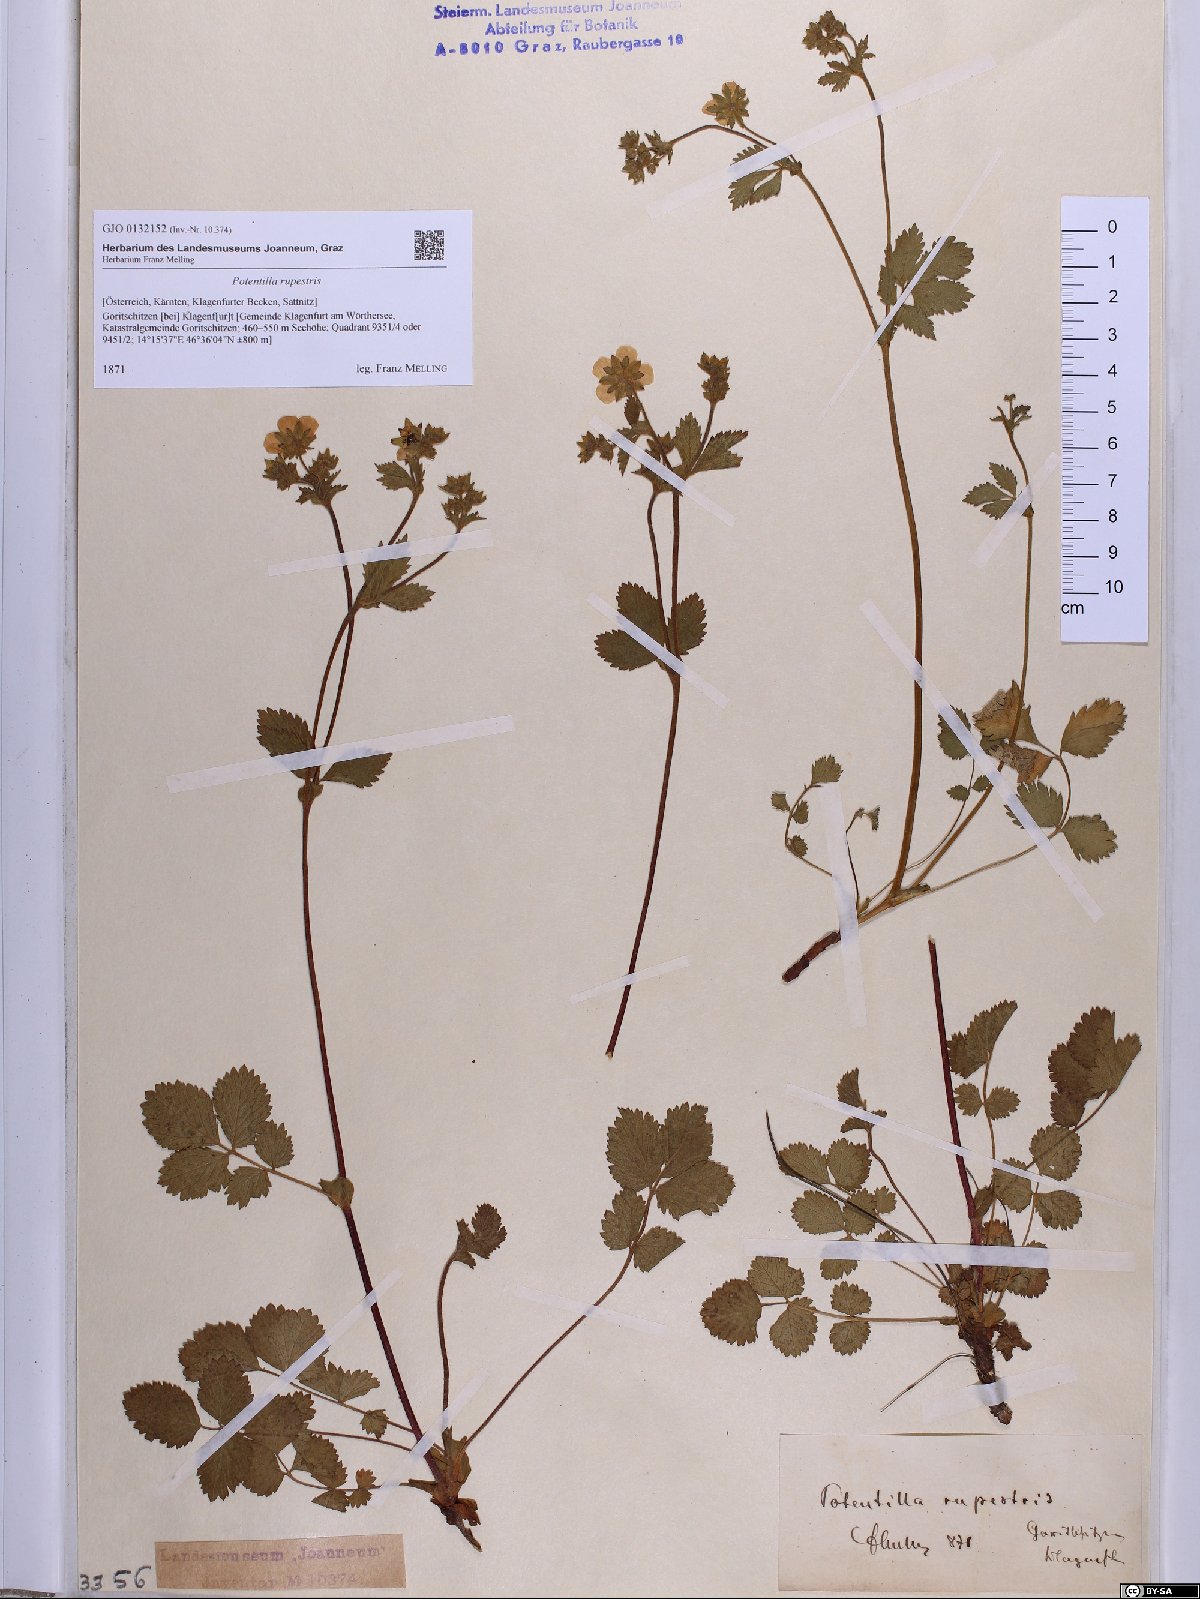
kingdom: Plantae
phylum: Tracheophyta
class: Magnoliopsida
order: Rosales
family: Rosaceae
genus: Drymocallis
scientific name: Drymocallis rupestris
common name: Rock cinquefoil
